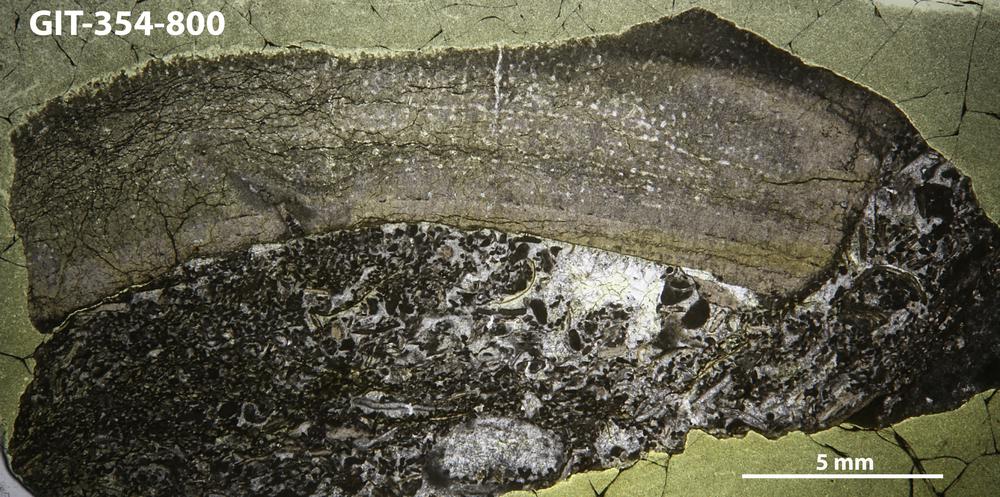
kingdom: Animalia
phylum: Porifera
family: Stromatoporidae
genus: Parallelostroma
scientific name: Parallelostroma
